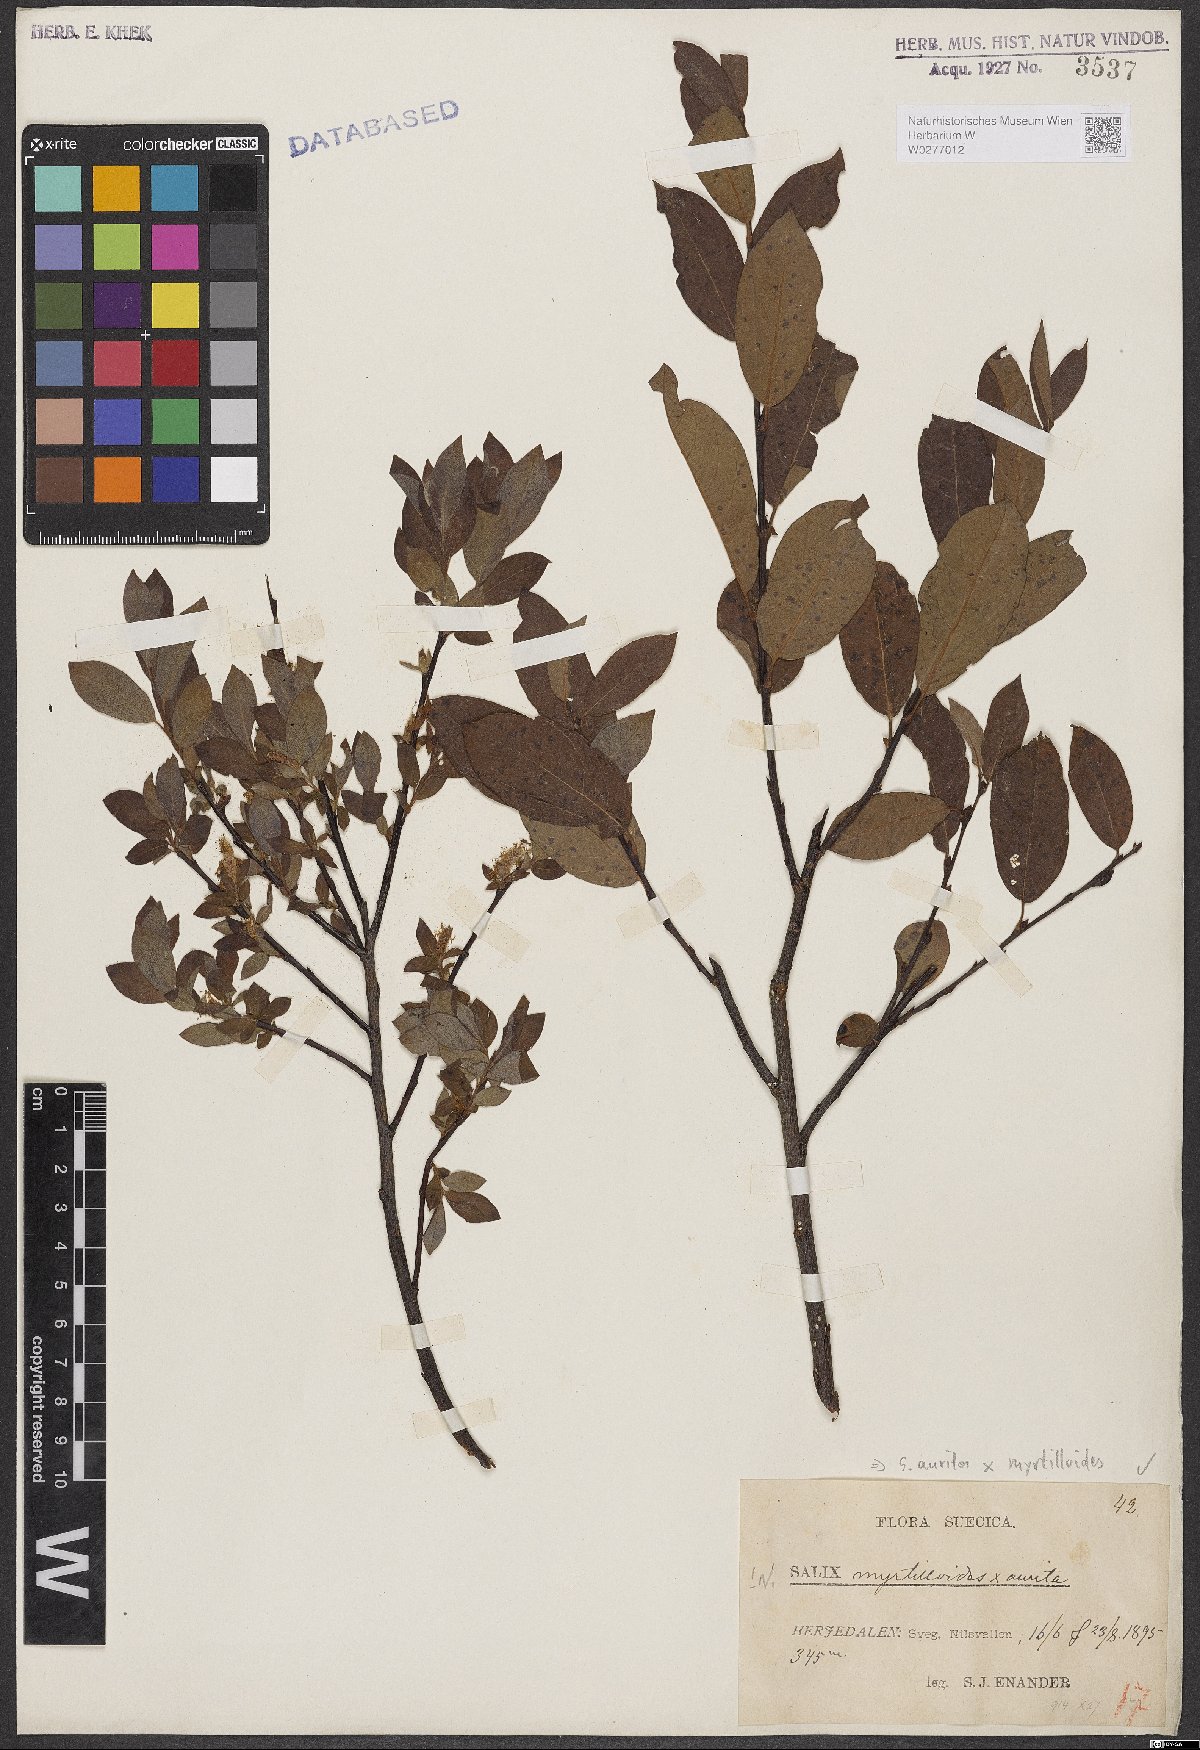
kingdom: Plantae
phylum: Tracheophyta
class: Magnoliopsida
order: Malpighiales
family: Salicaceae
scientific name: Salicaceae
